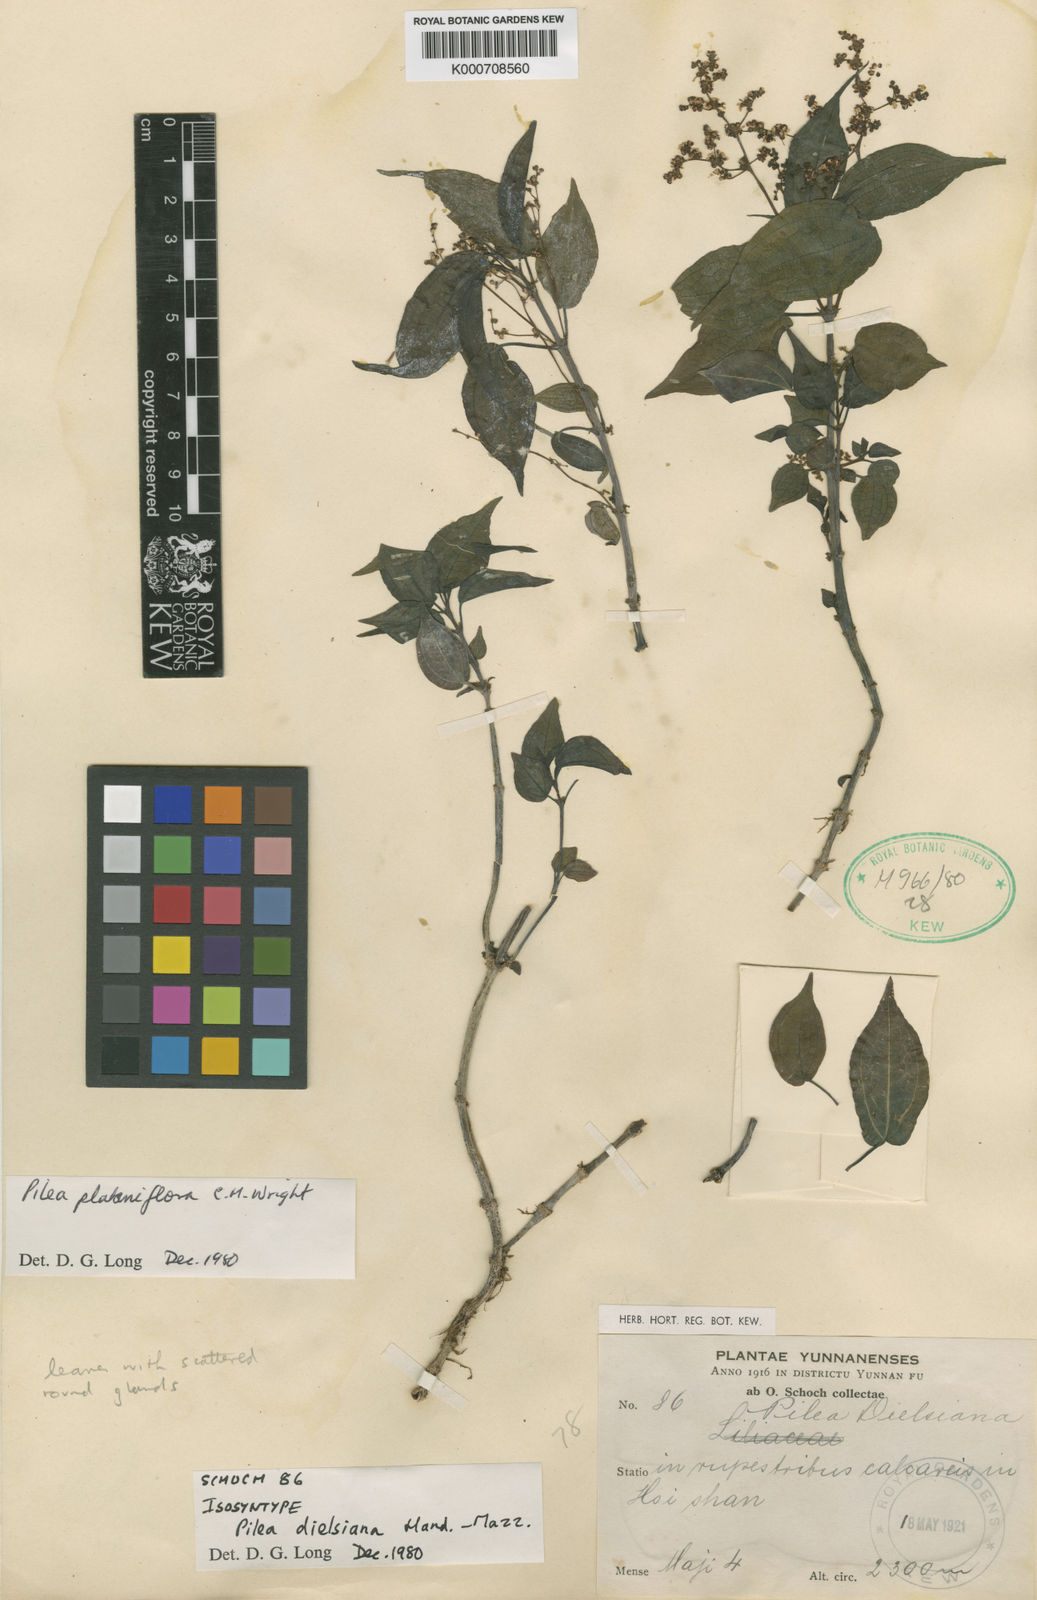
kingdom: Plantae
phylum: Tracheophyta
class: Magnoliopsida
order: Rosales
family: Urticaceae
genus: Pilea
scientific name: Pilea plataniflora
